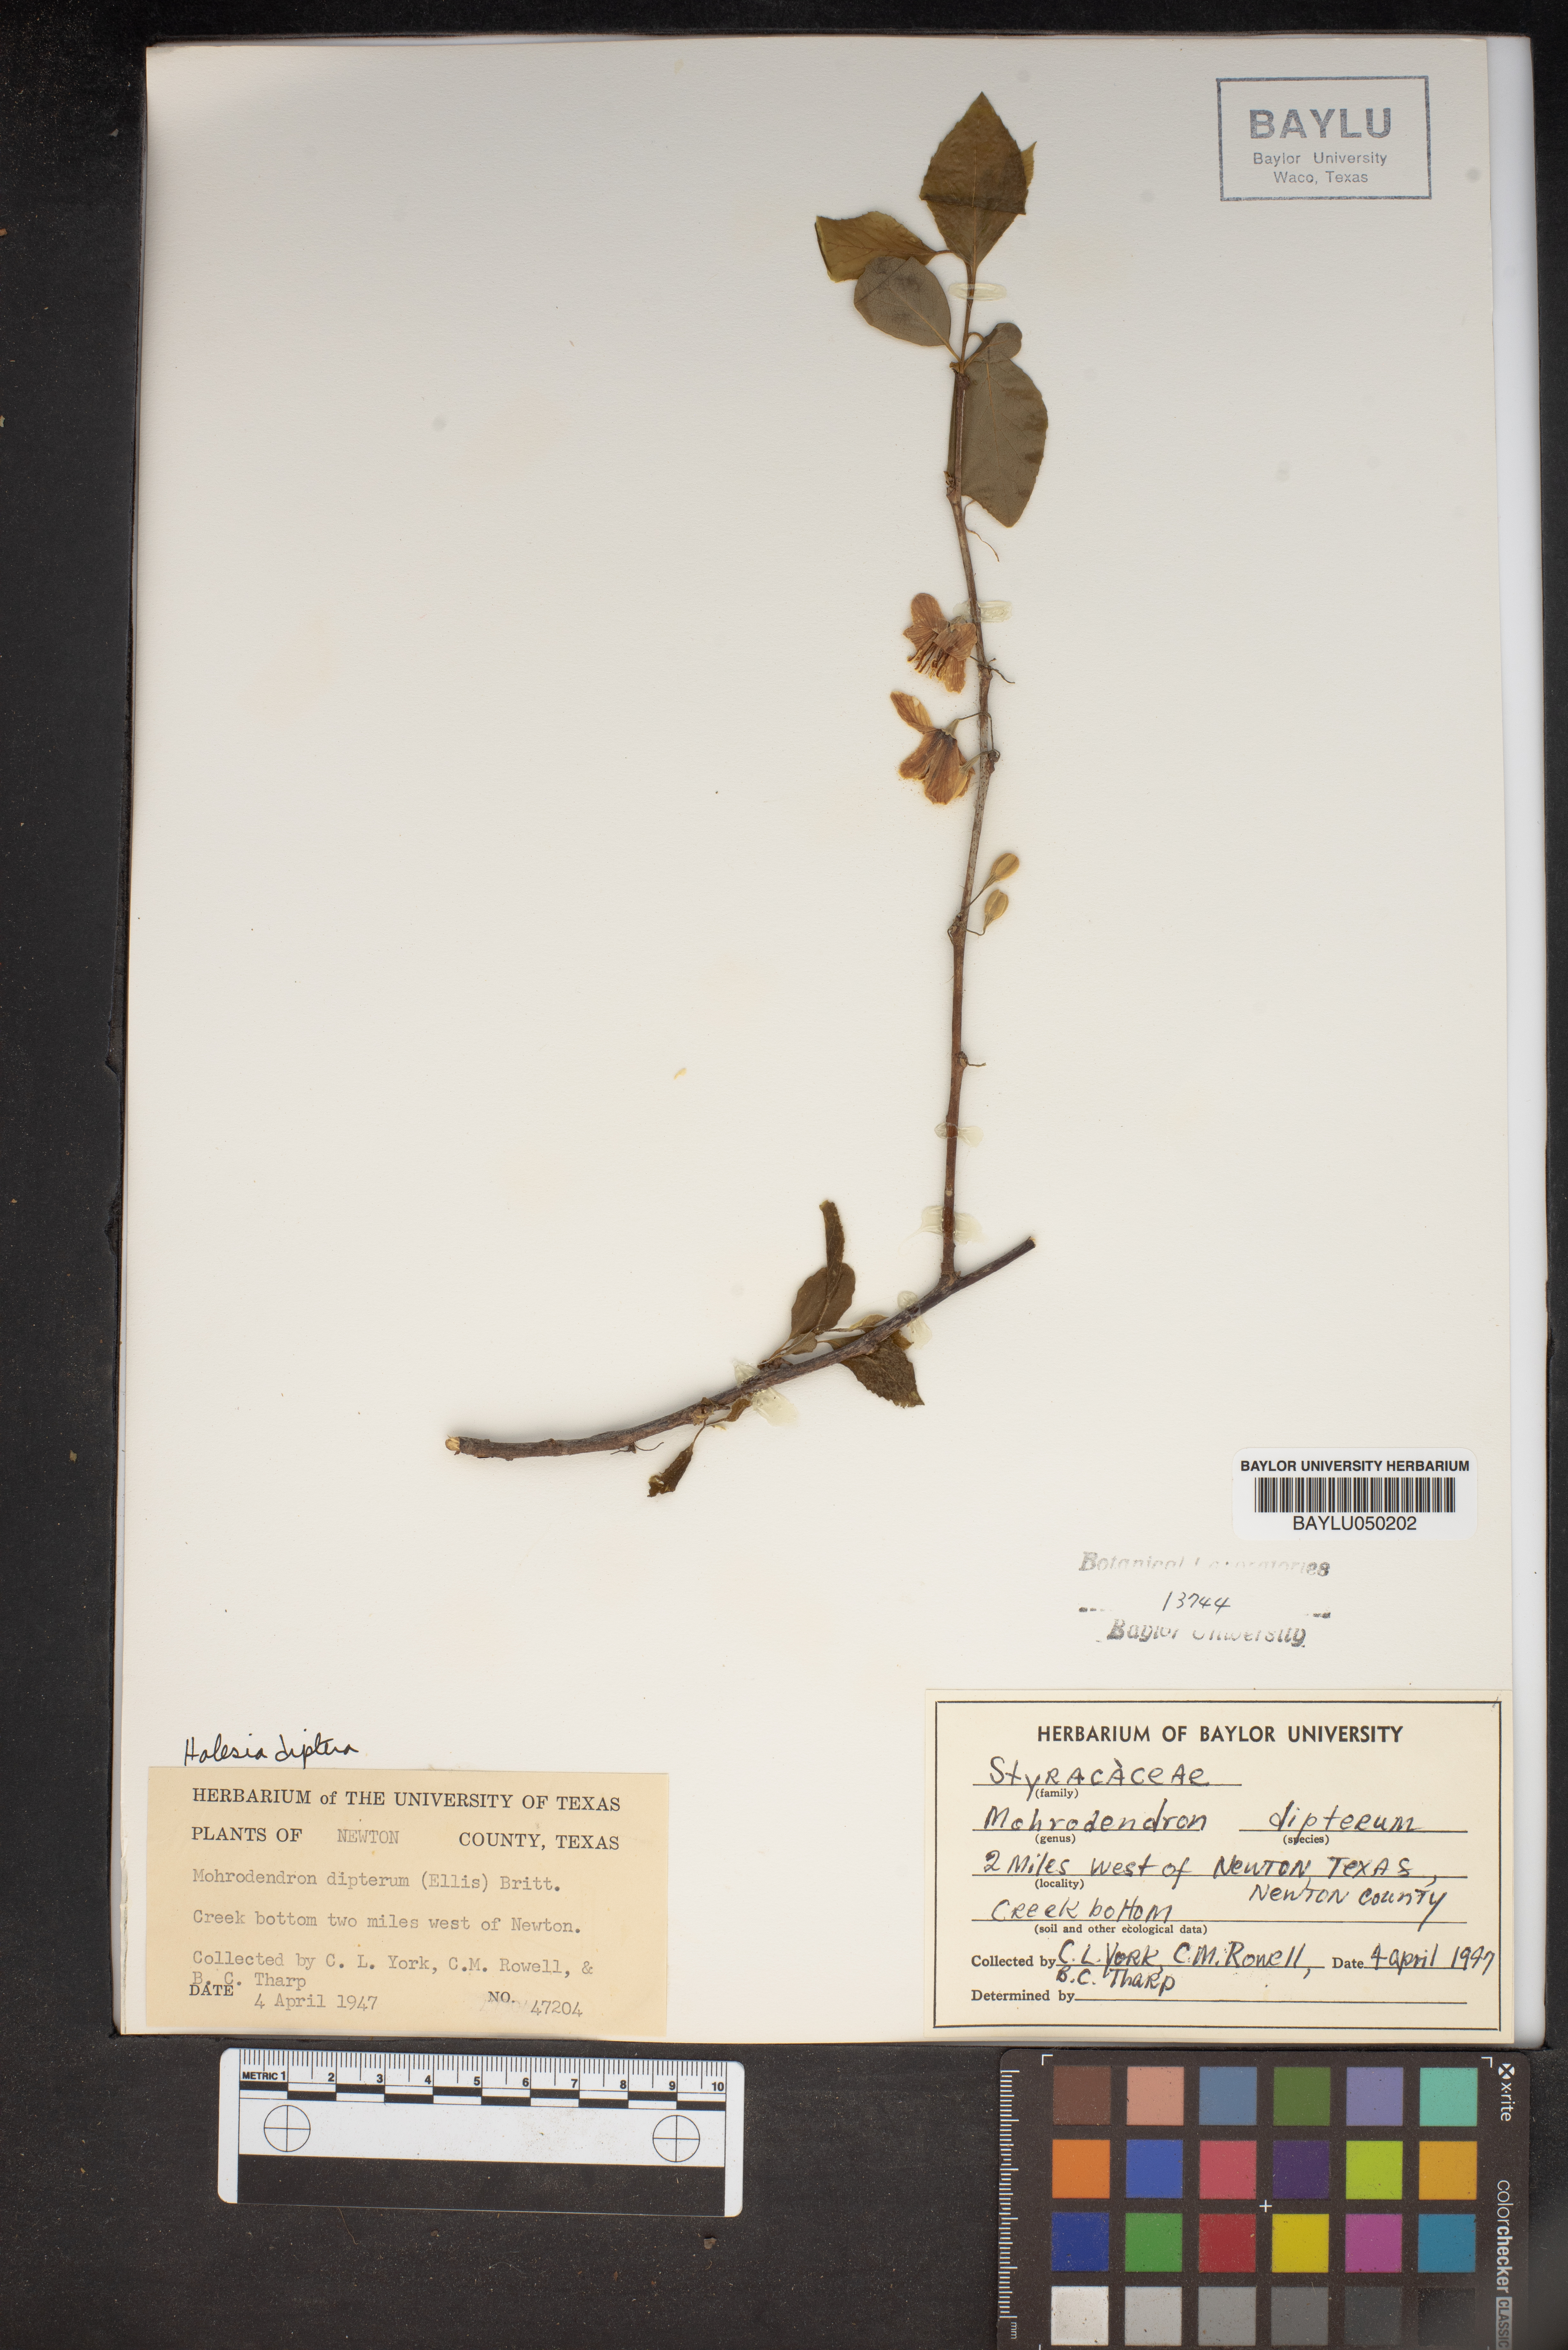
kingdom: Plantae
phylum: Tracheophyta
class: Magnoliopsida
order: Ericales
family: Styracaceae
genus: Halesia
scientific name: Halesia diptera
